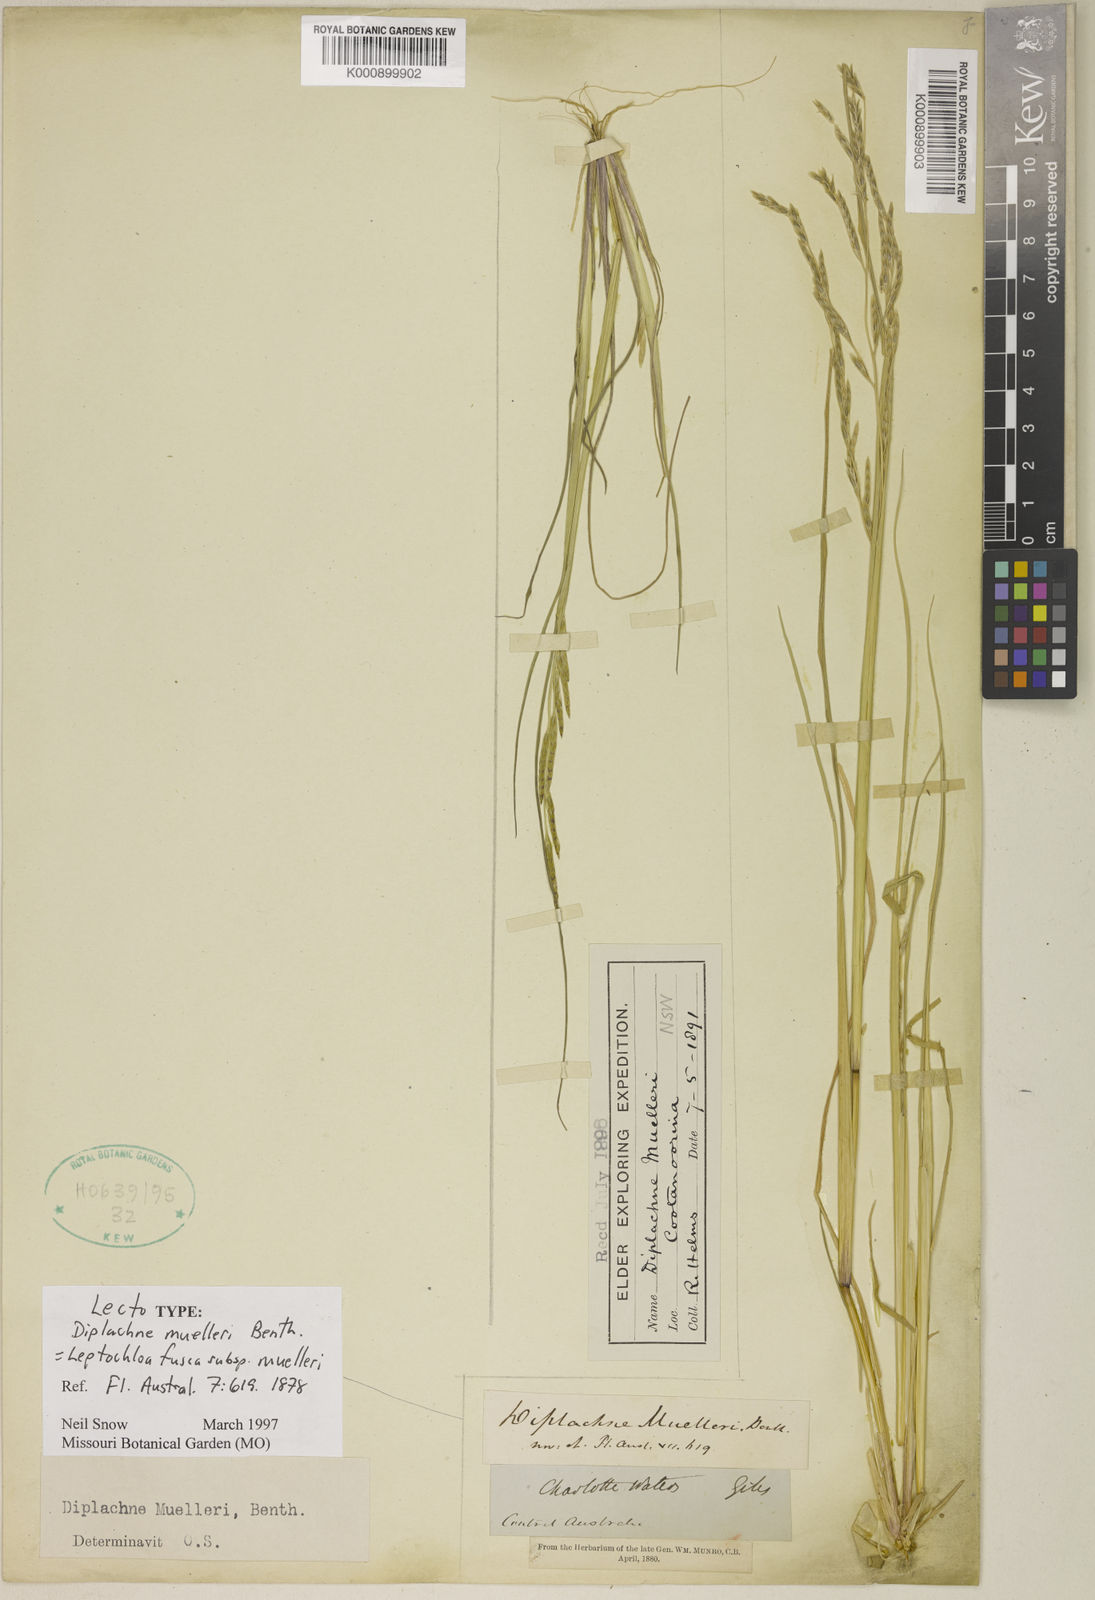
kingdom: Plantae
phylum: Tracheophyta
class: Liliopsida
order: Poales
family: Poaceae
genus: Diplachne
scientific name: Diplachne fusca
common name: Brown beetle grass
